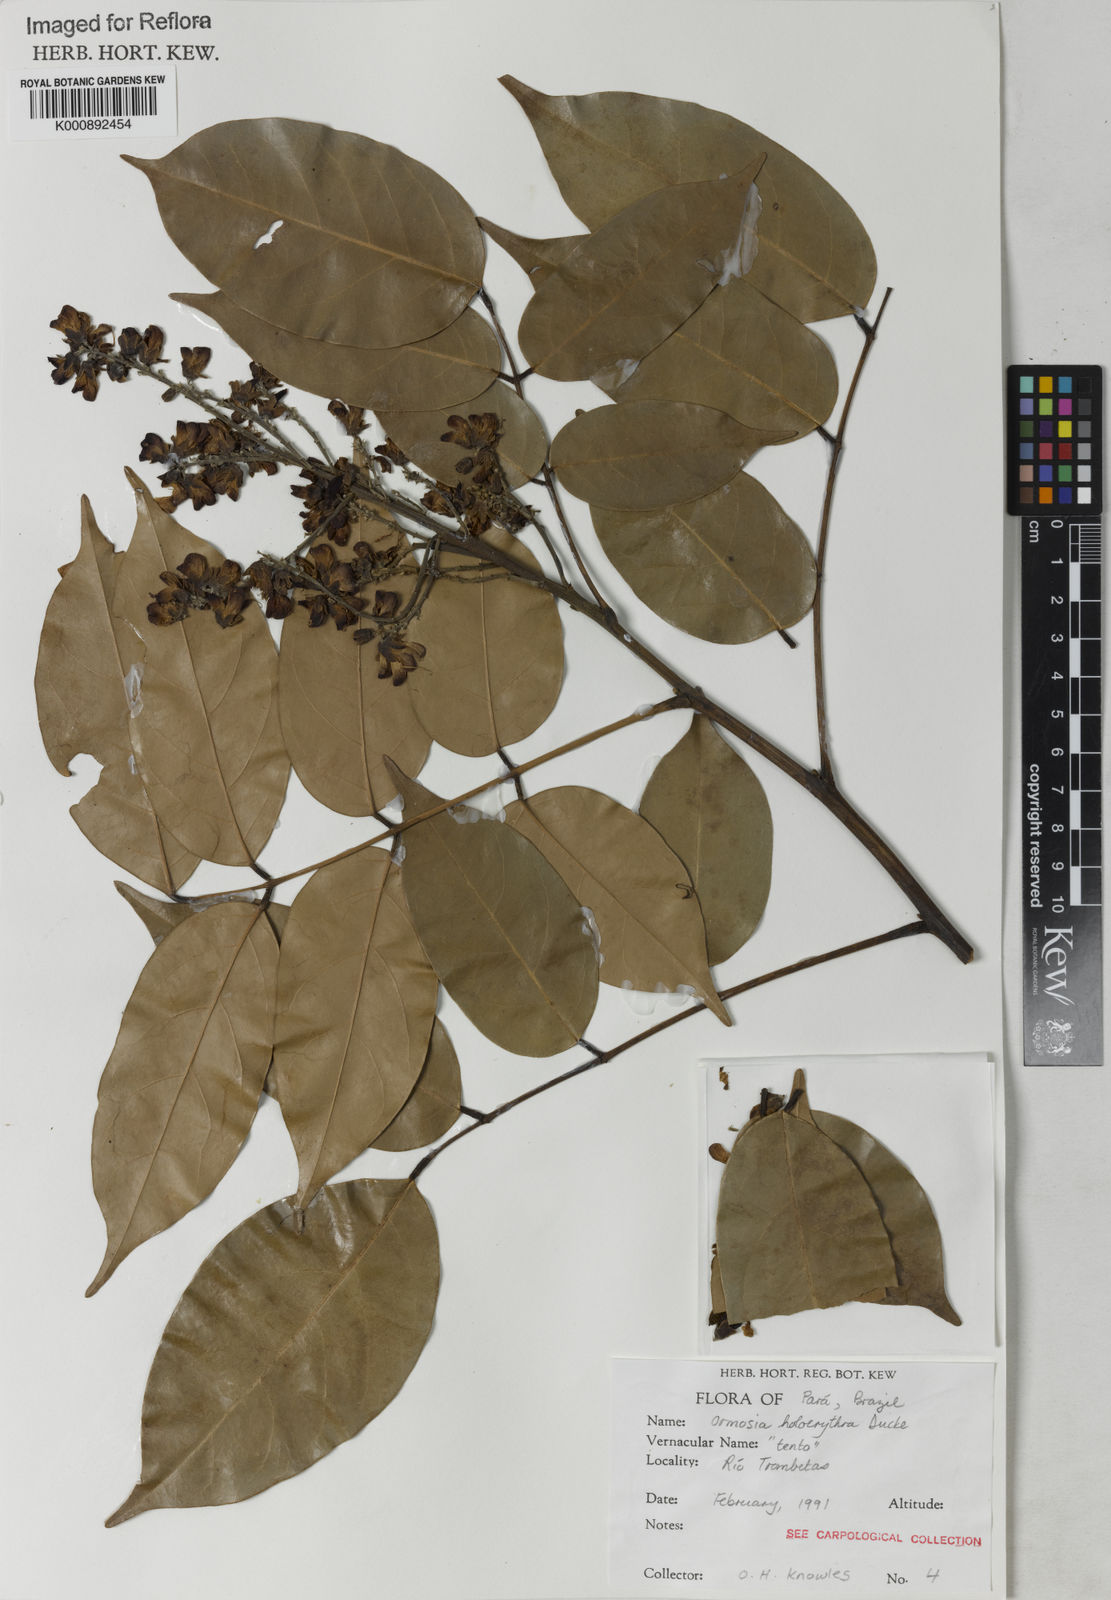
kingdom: Plantae
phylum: Tracheophyta
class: Magnoliopsida
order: Fabales
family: Fabaceae
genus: Ormosia
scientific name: Ormosia holerythra
